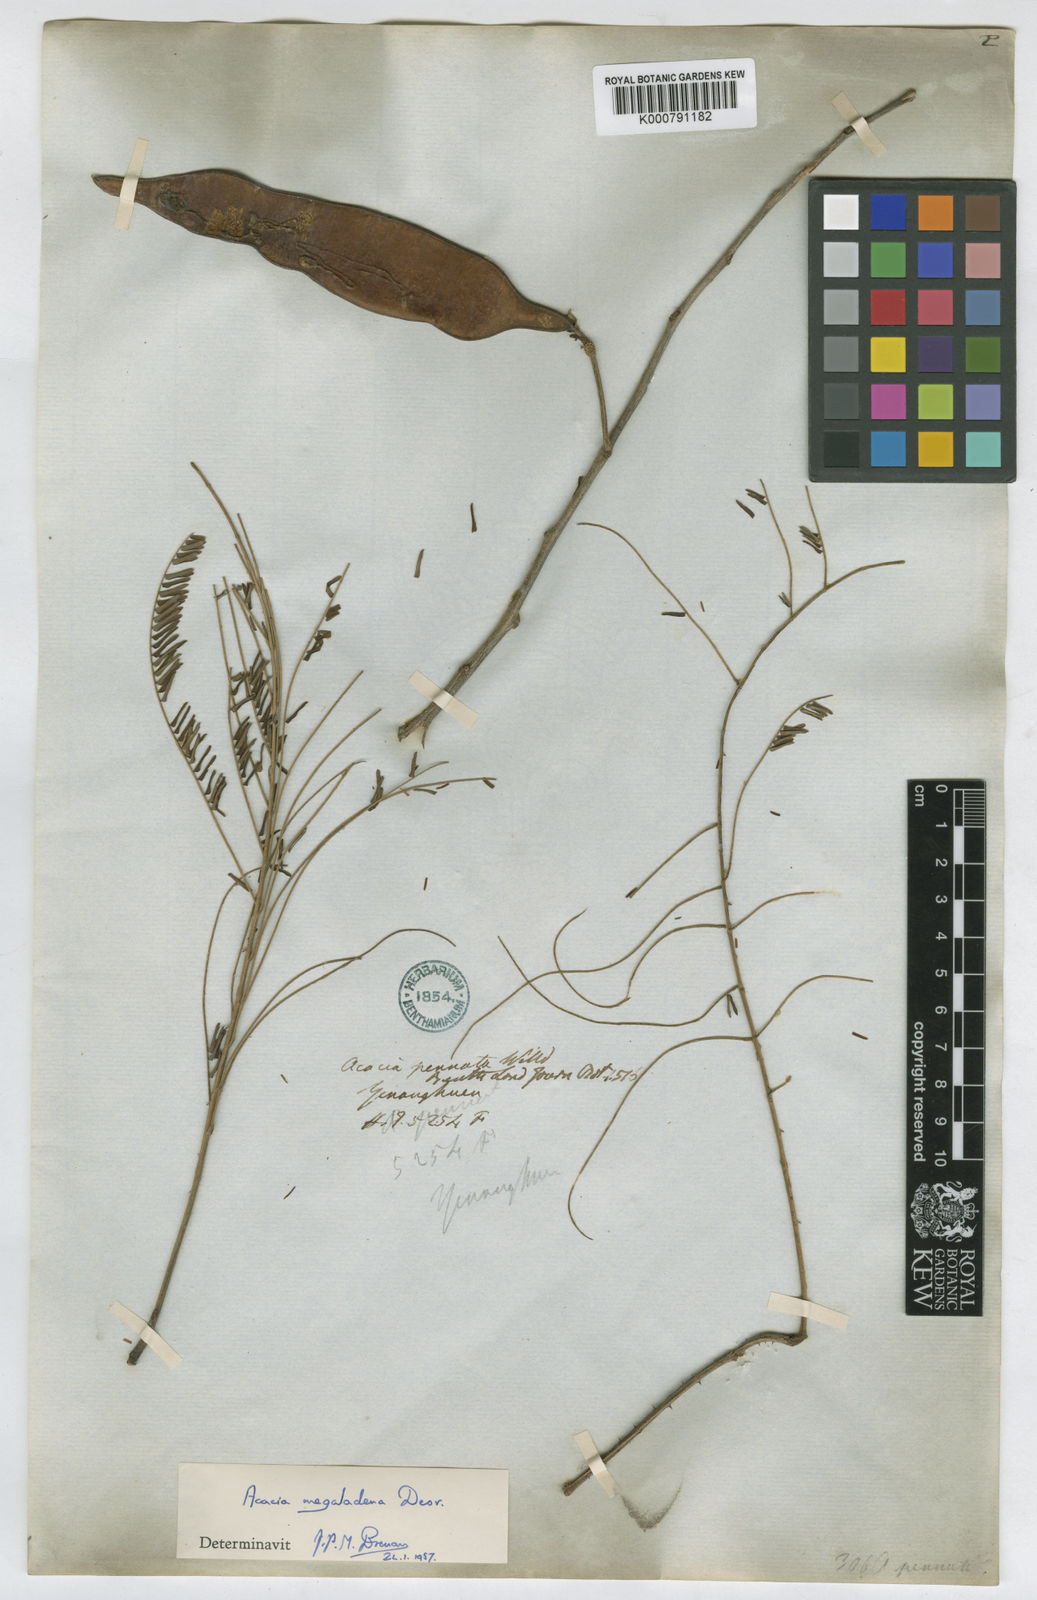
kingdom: Plantae
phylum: Tracheophyta
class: Magnoliopsida
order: Fabales
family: Fabaceae
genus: Senegalia
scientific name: Senegalia megaladena
